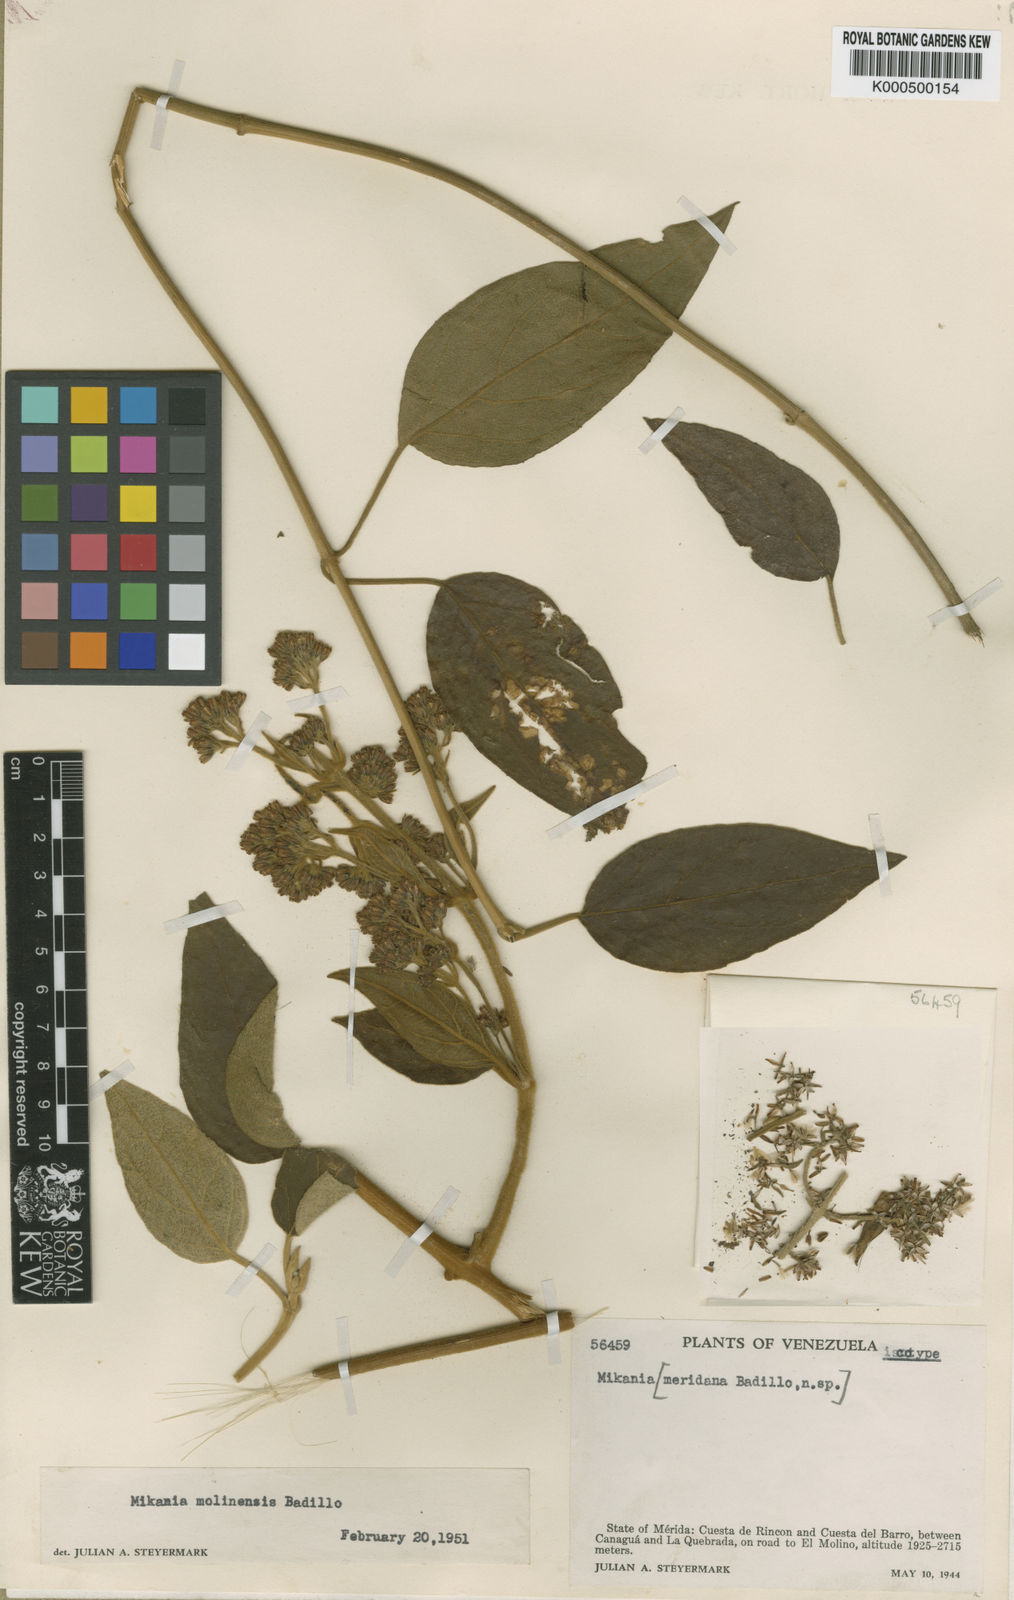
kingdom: Plantae
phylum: Tracheophyta
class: Magnoliopsida
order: Asterales
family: Asteraceae
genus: Mikania
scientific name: Mikania banisteriae
